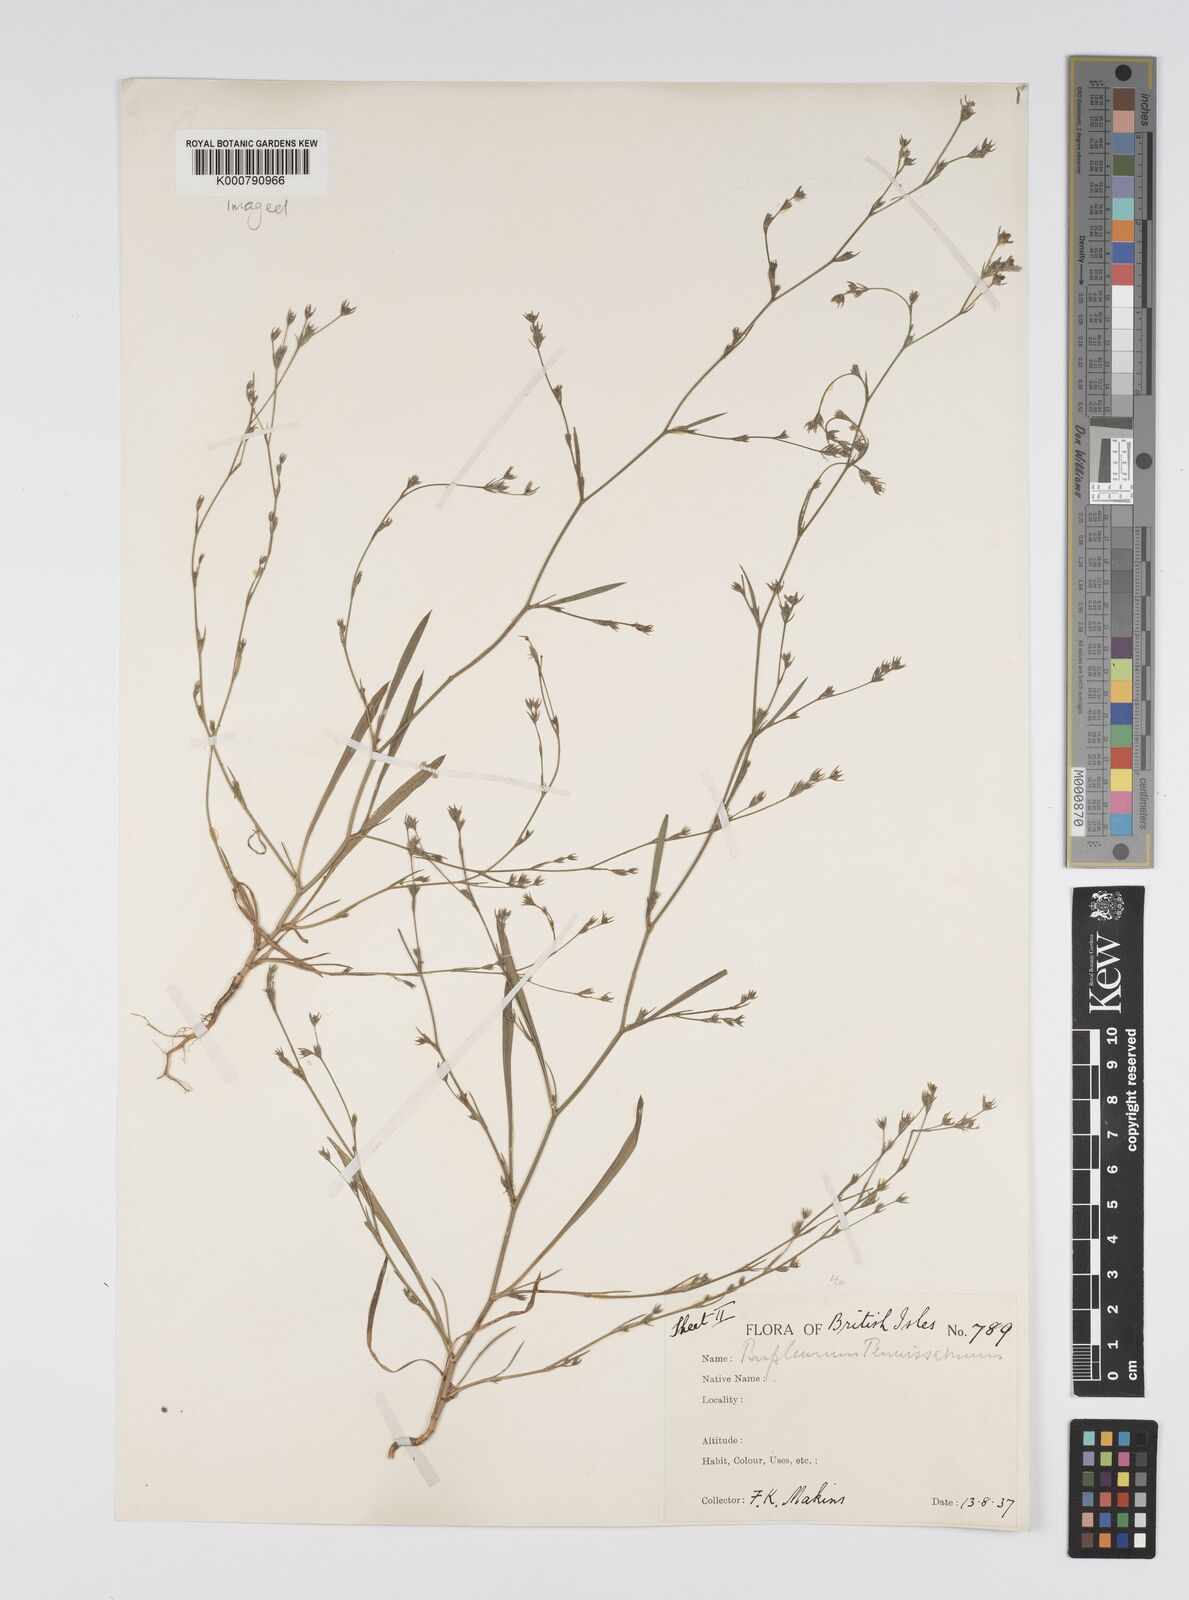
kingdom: Plantae
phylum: Tracheophyta
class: Magnoliopsida
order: Apiales
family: Apiaceae
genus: Bupleurum
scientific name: Bupleurum tenuissimum
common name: Slender hare's-ear
